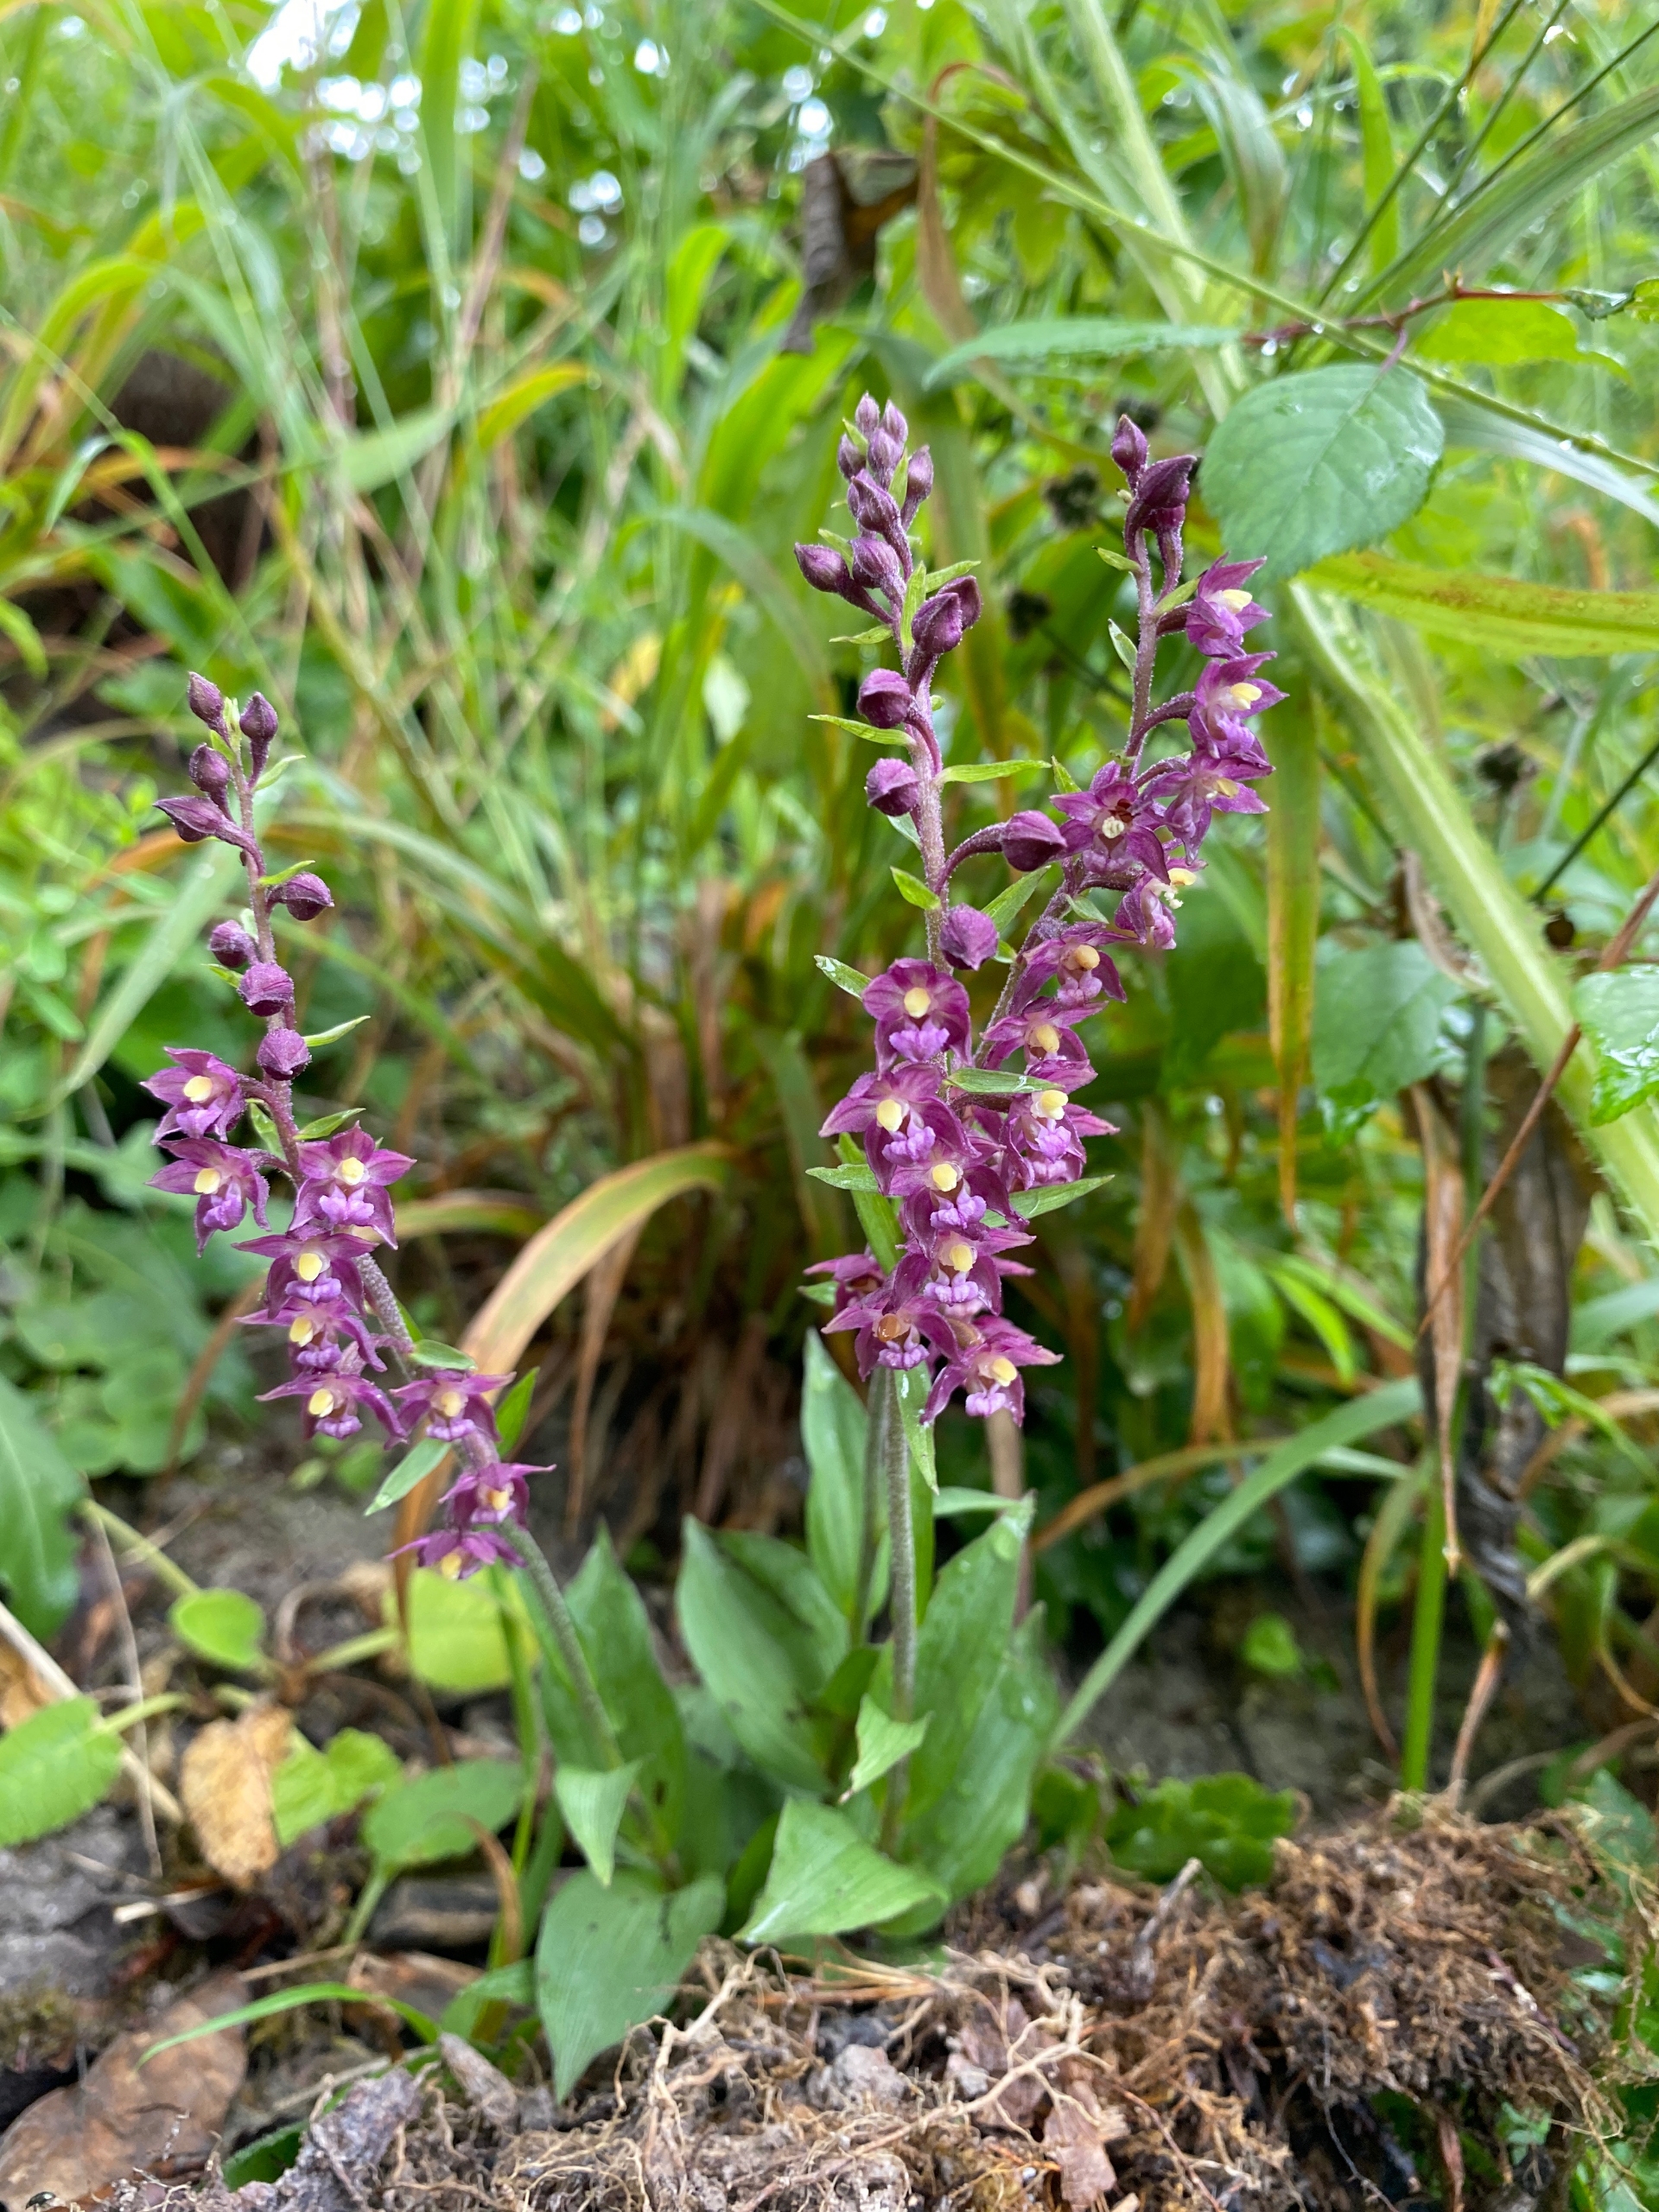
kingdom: Plantae
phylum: Tracheophyta
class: Liliopsida
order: Asparagales
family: Orchidaceae
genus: Epipactis
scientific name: Epipactis atrorubens
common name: Rød hullæbe
